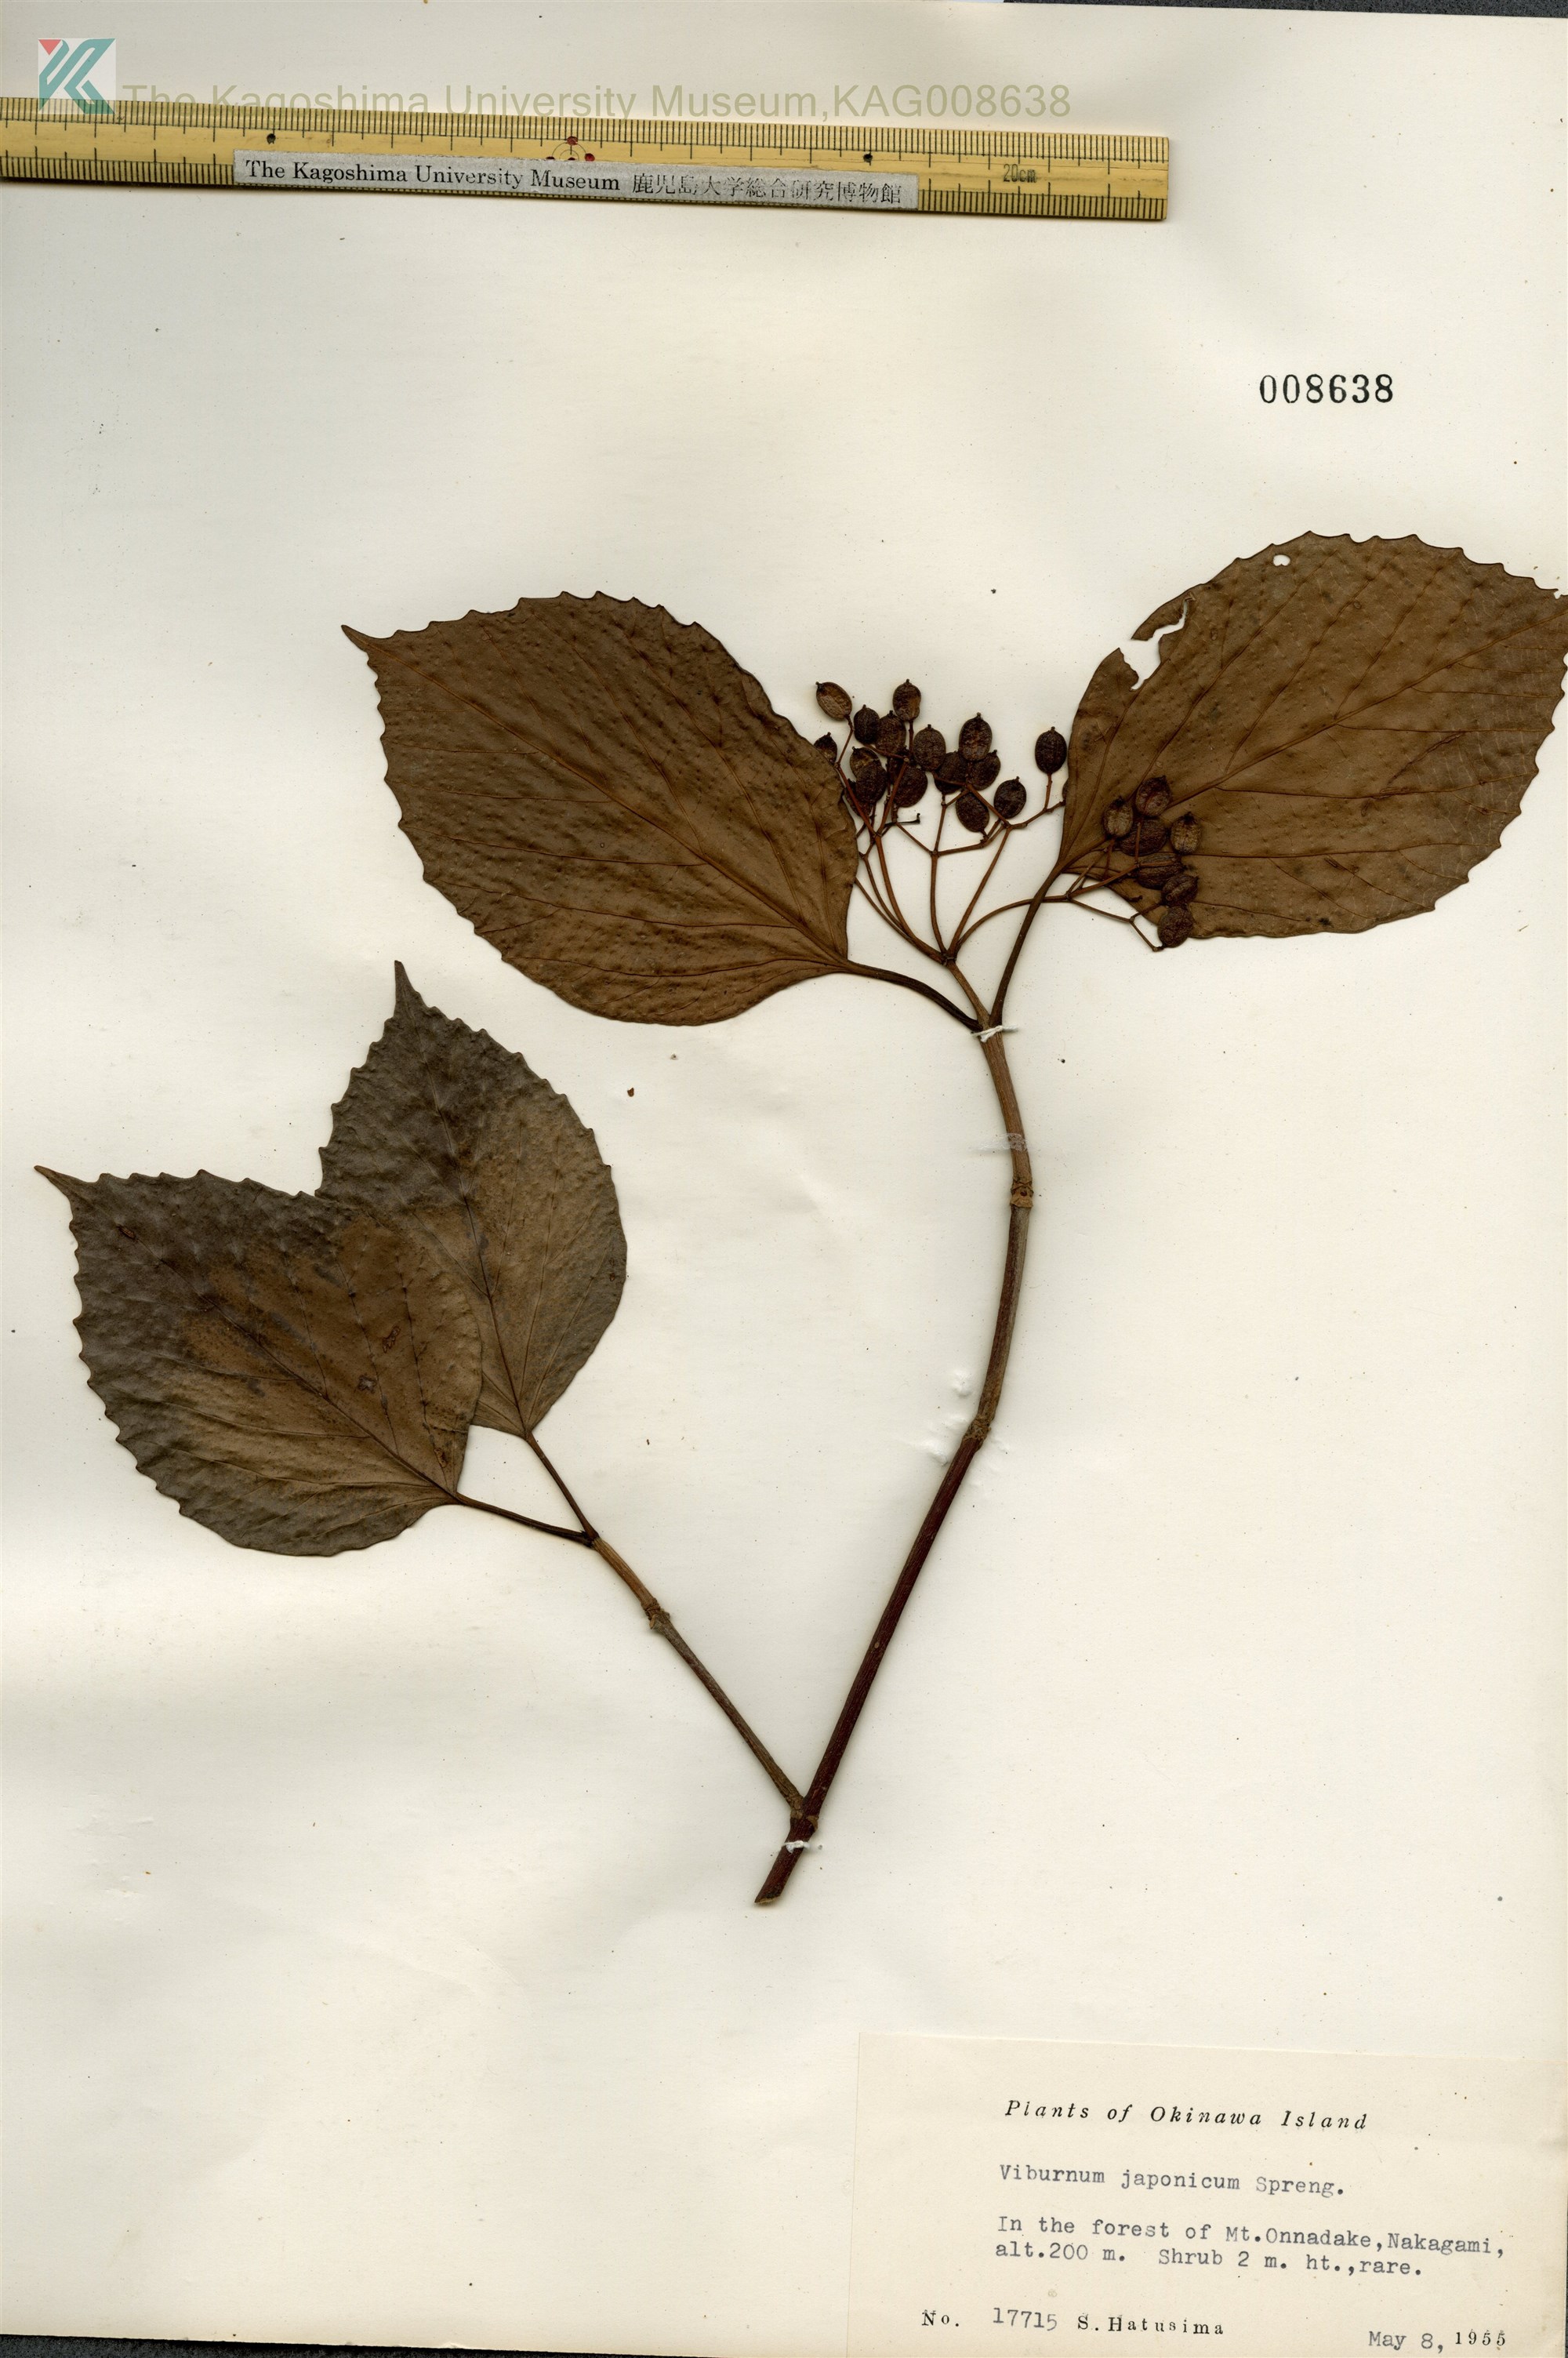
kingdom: Plantae
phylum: Tracheophyta
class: Magnoliopsida
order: Dipsacales
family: Viburnaceae
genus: Viburnum
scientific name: Viburnum japonicum
